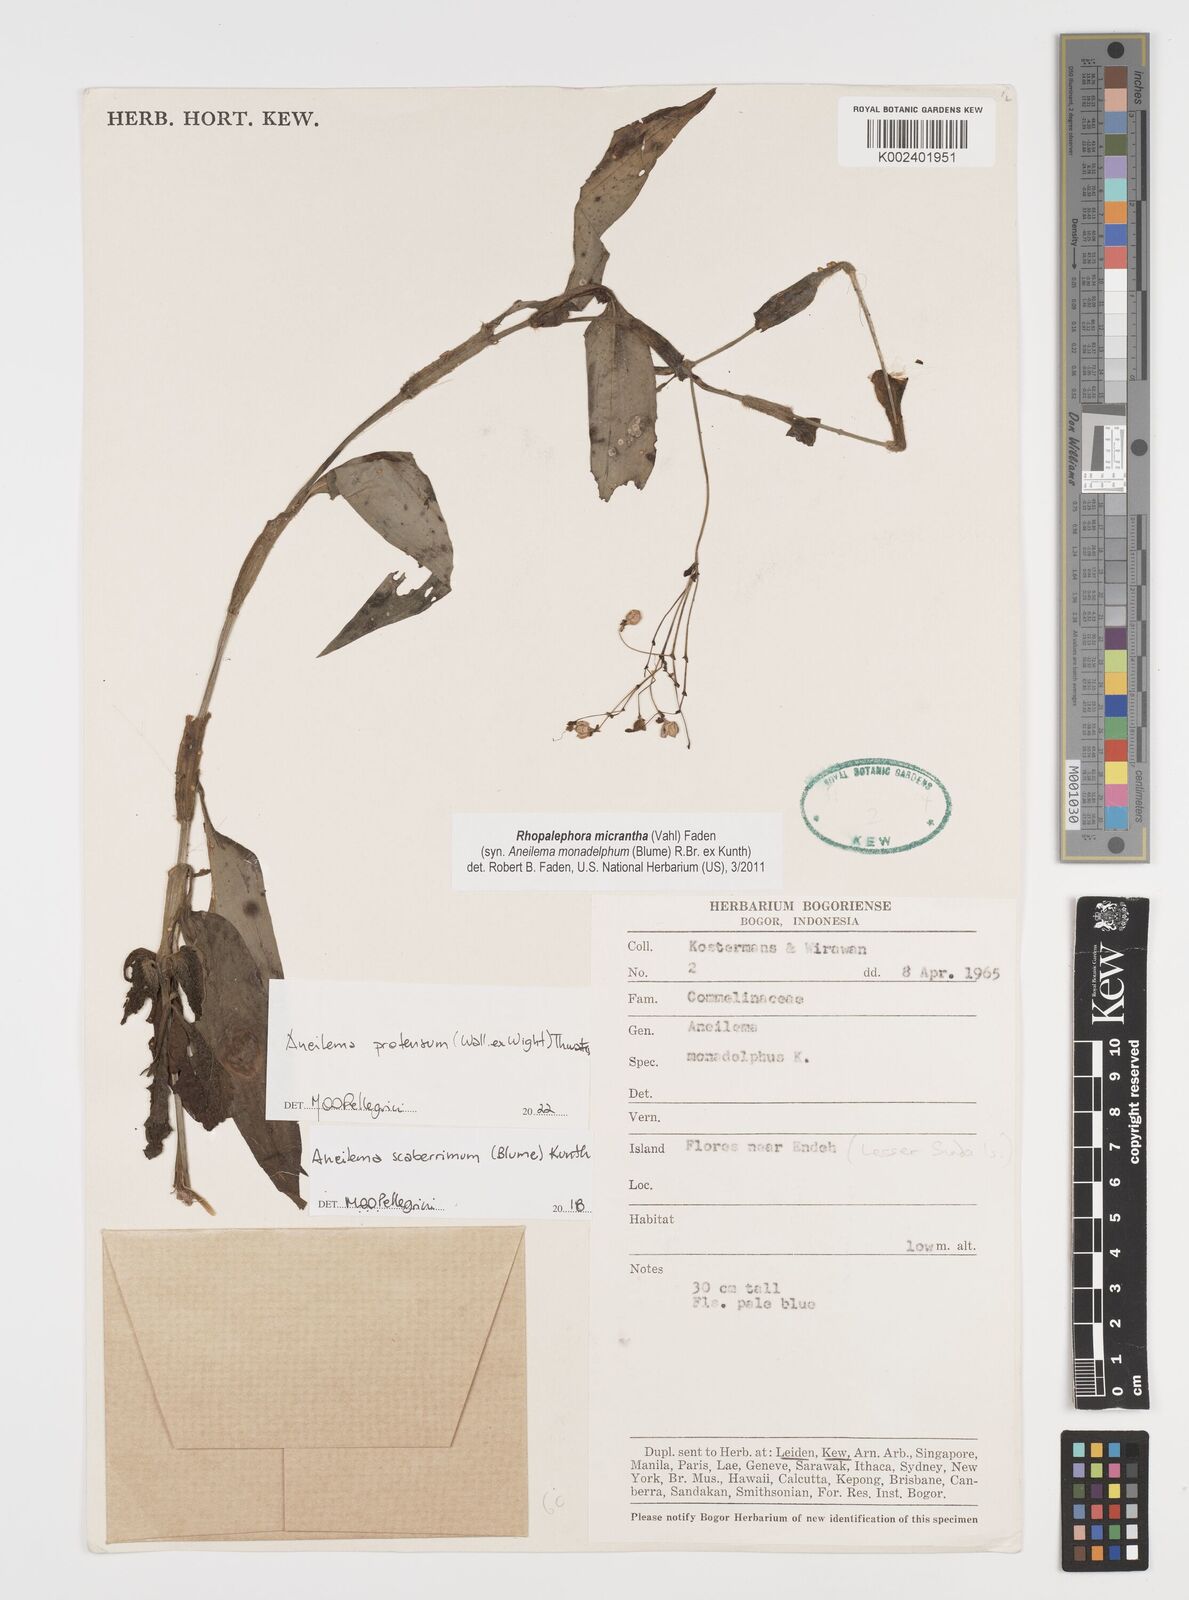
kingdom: Plantae
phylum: Tracheophyta
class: Liliopsida
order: Commelinales
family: Commelinaceae
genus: Rhopalephora
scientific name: Rhopalephora scaberrima
